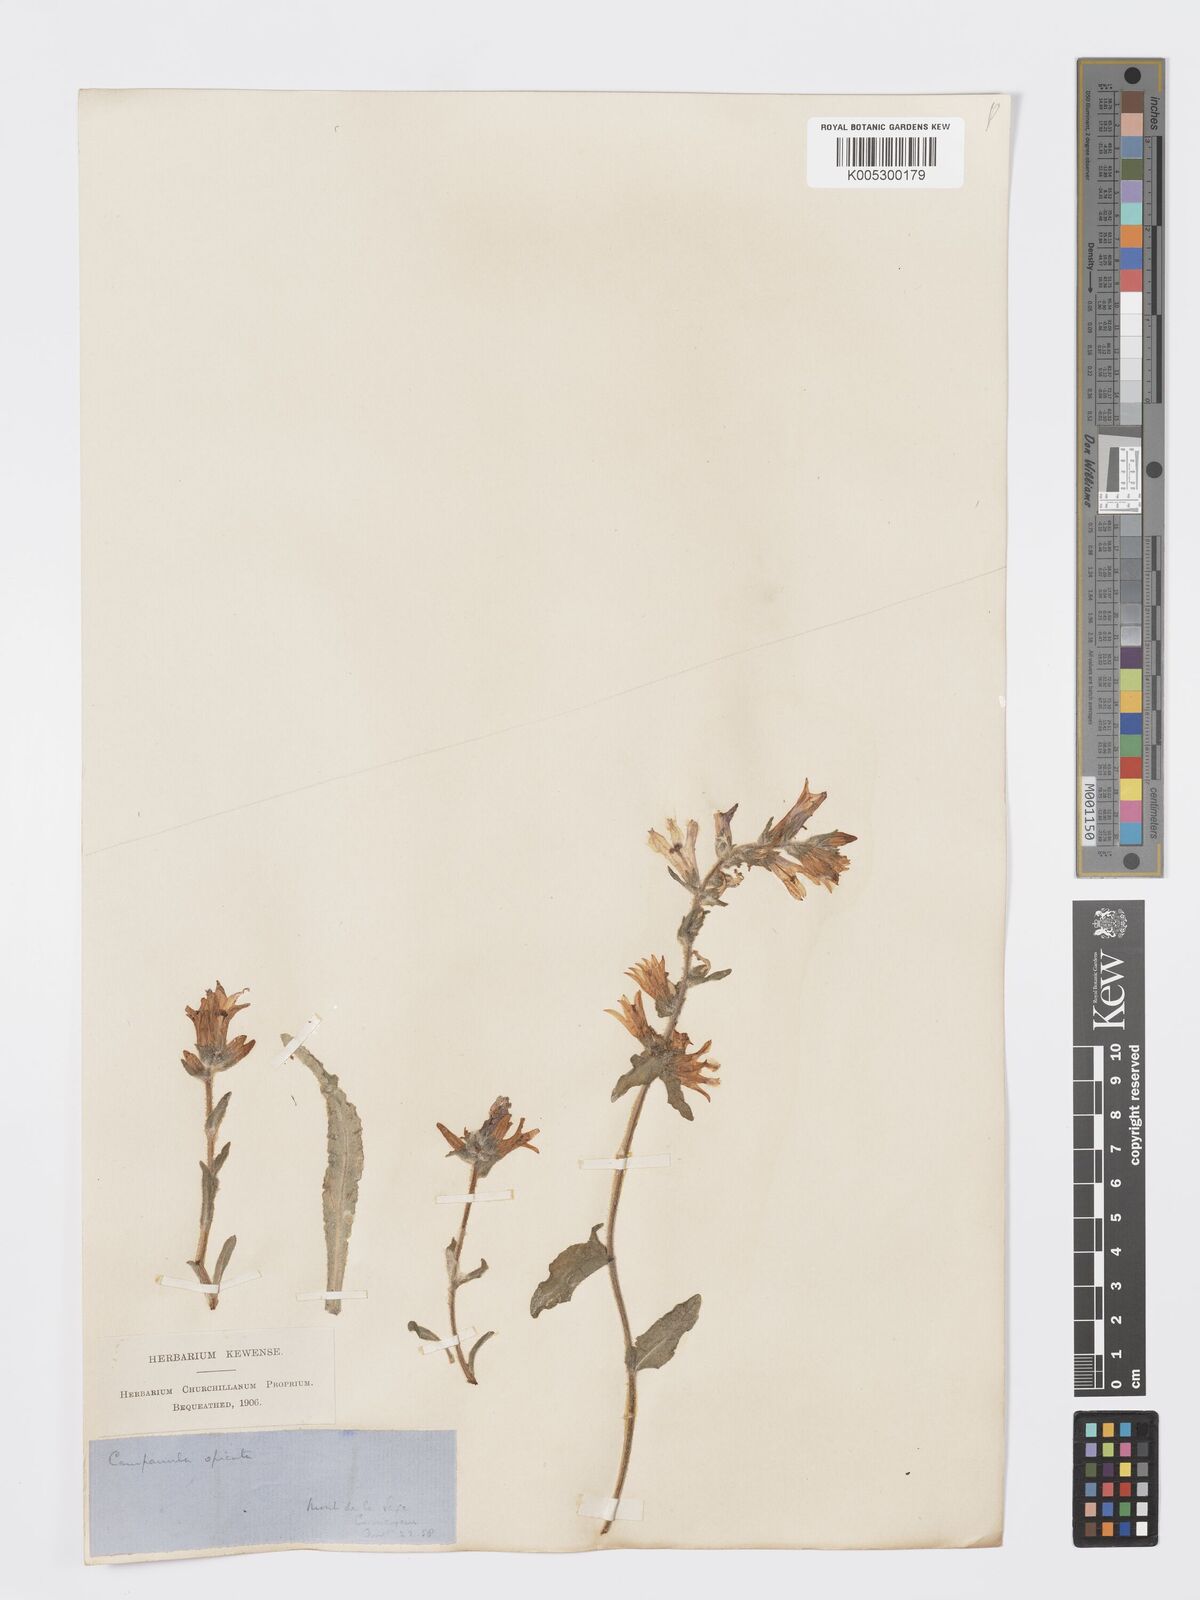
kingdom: Plantae
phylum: Tracheophyta
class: Magnoliopsida
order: Asterales
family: Campanulaceae
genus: Campanula
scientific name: Campanula spicata
